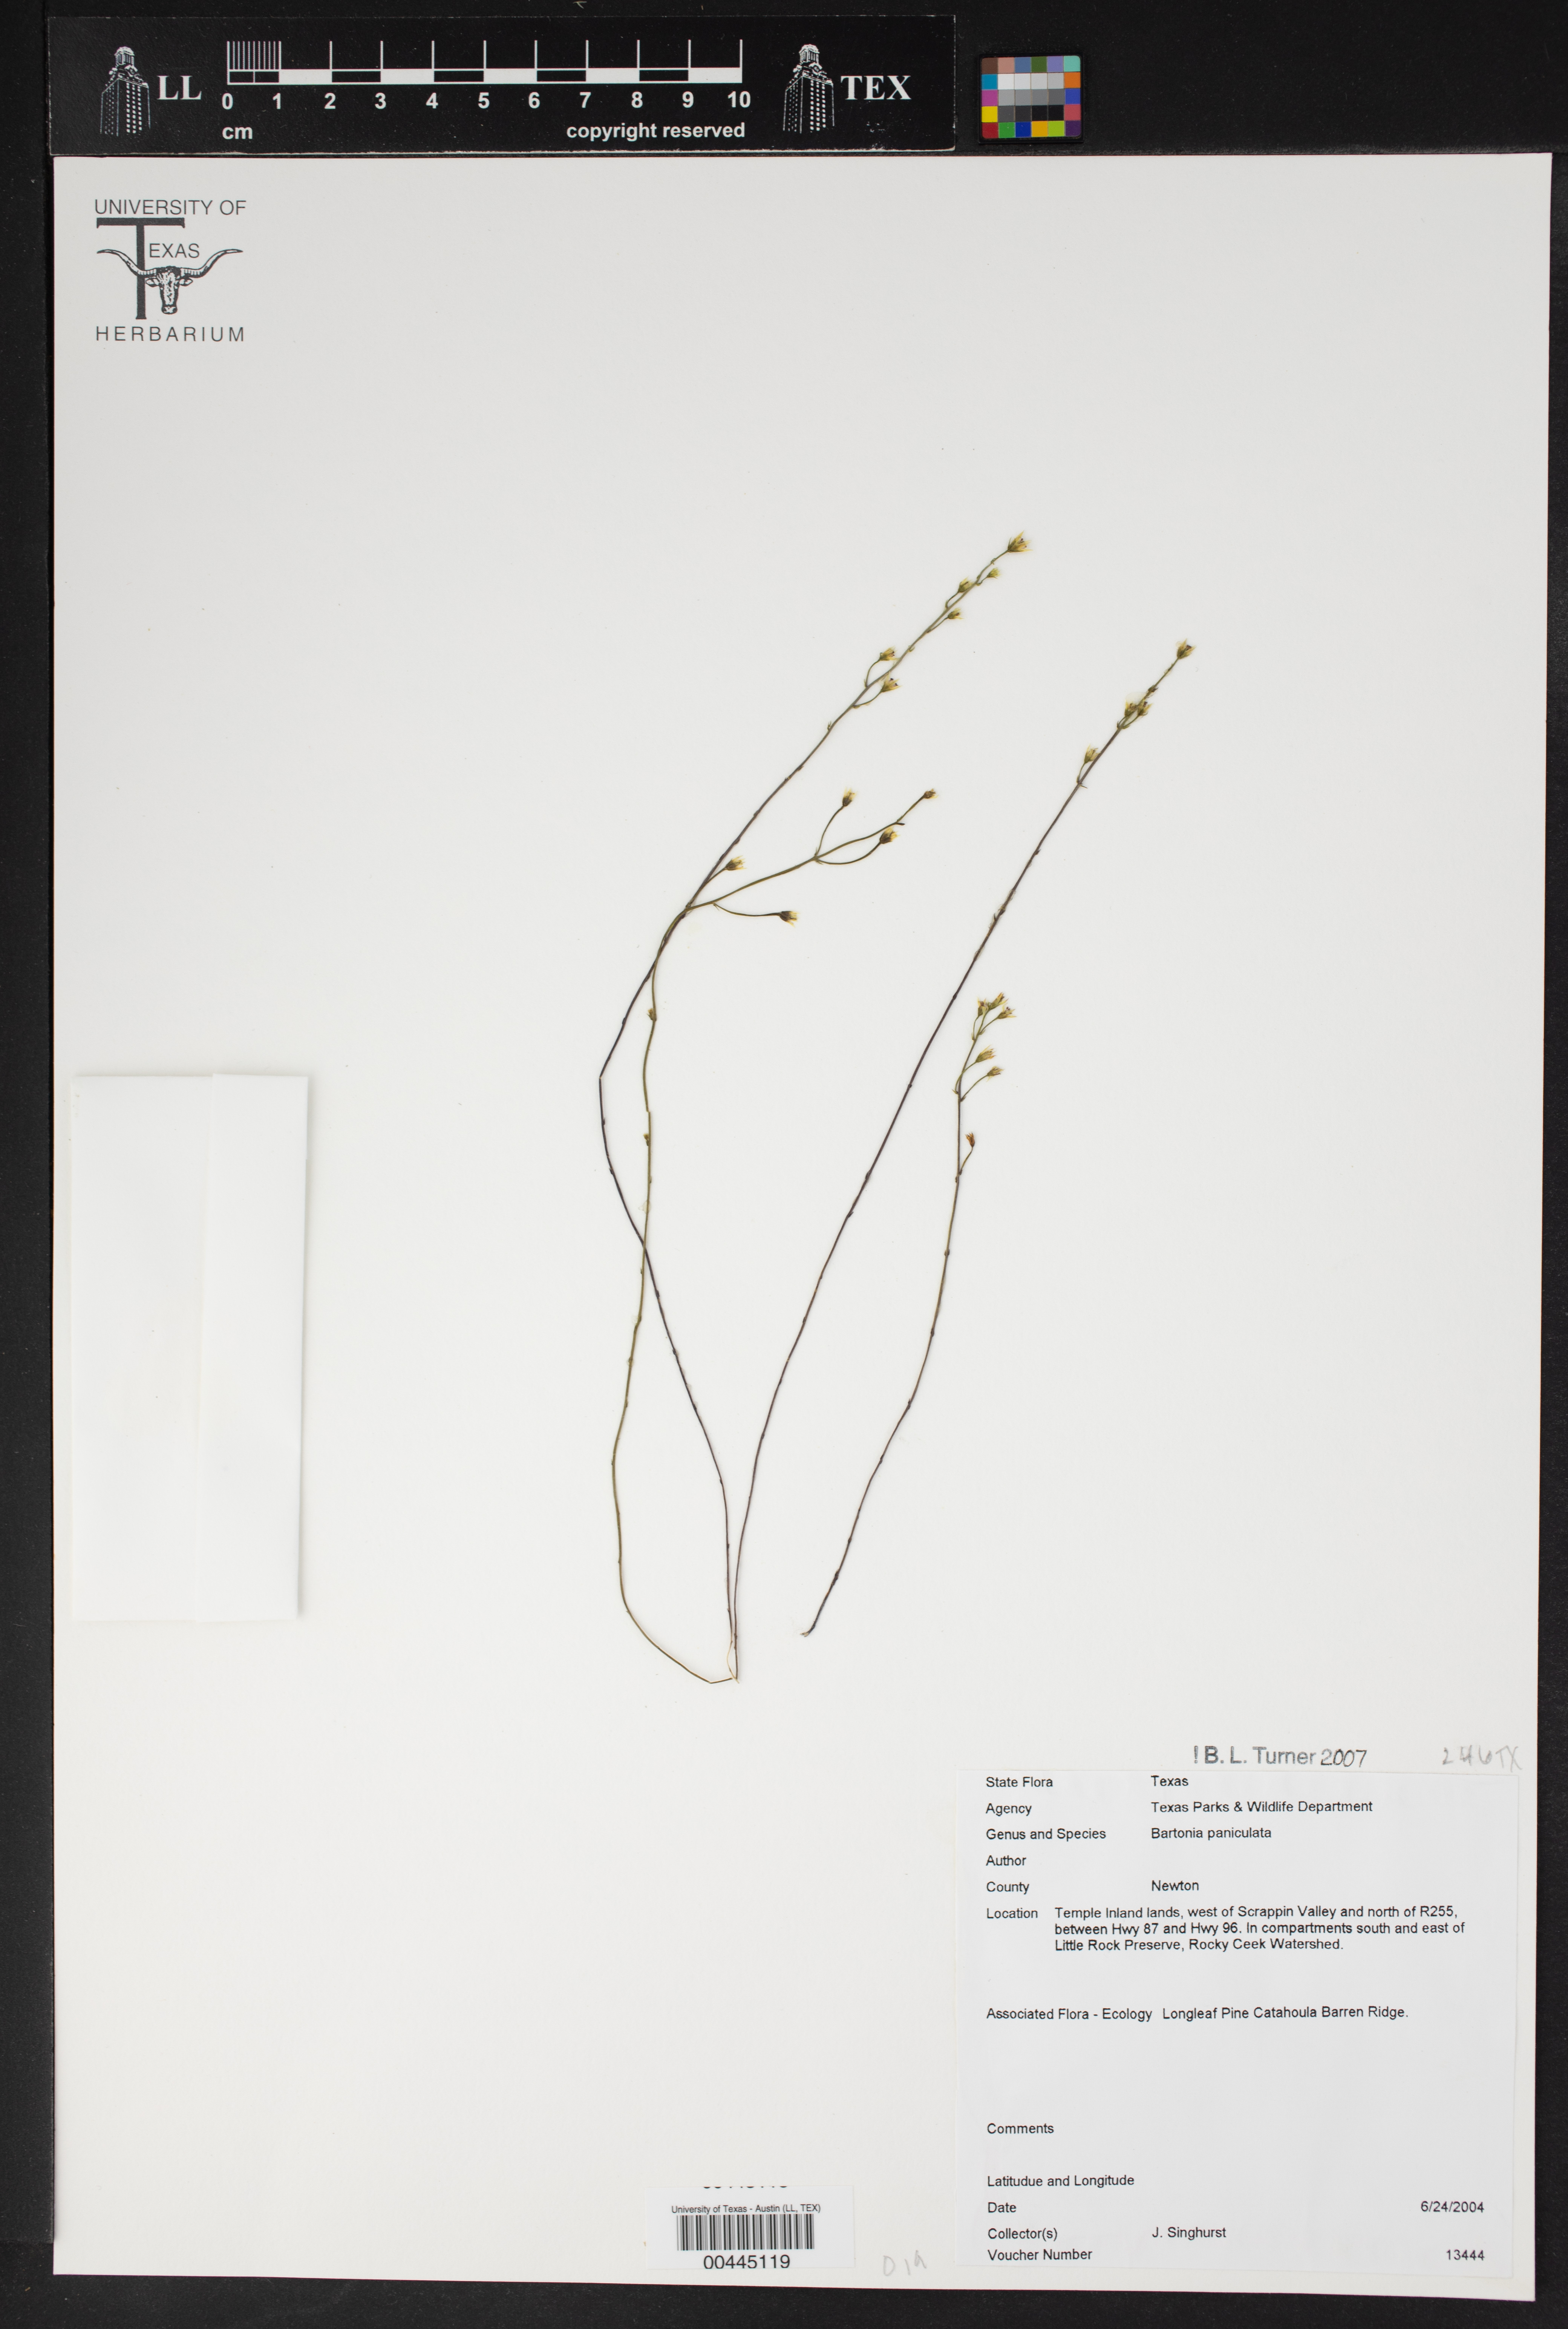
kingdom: Plantae
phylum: Tracheophyta
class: Magnoliopsida
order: Gentianales
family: Gentianaceae
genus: Bartonia
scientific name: Bartonia paniculata
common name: Branched bartonia
